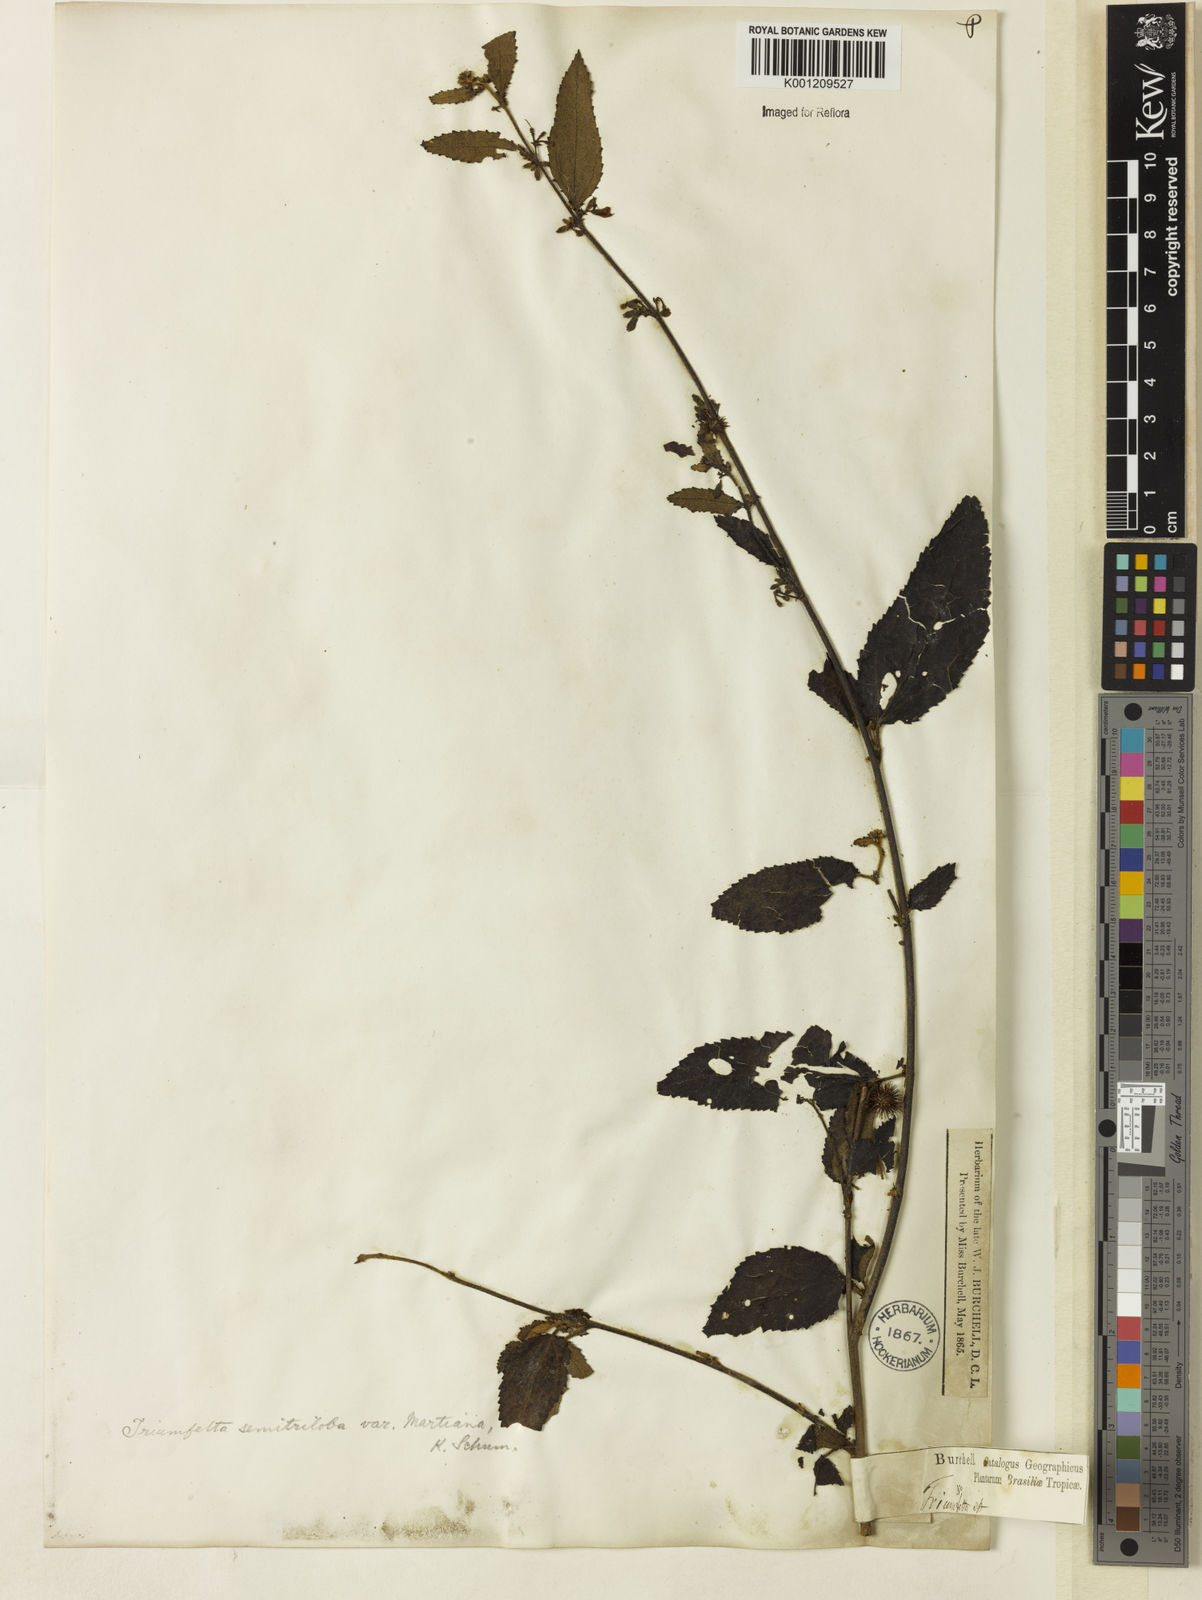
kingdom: Plantae
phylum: Tracheophyta
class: Magnoliopsida
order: Malvales
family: Malvaceae
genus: Triumfetta
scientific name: Triumfetta semitriloba
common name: Sacramento burbark
